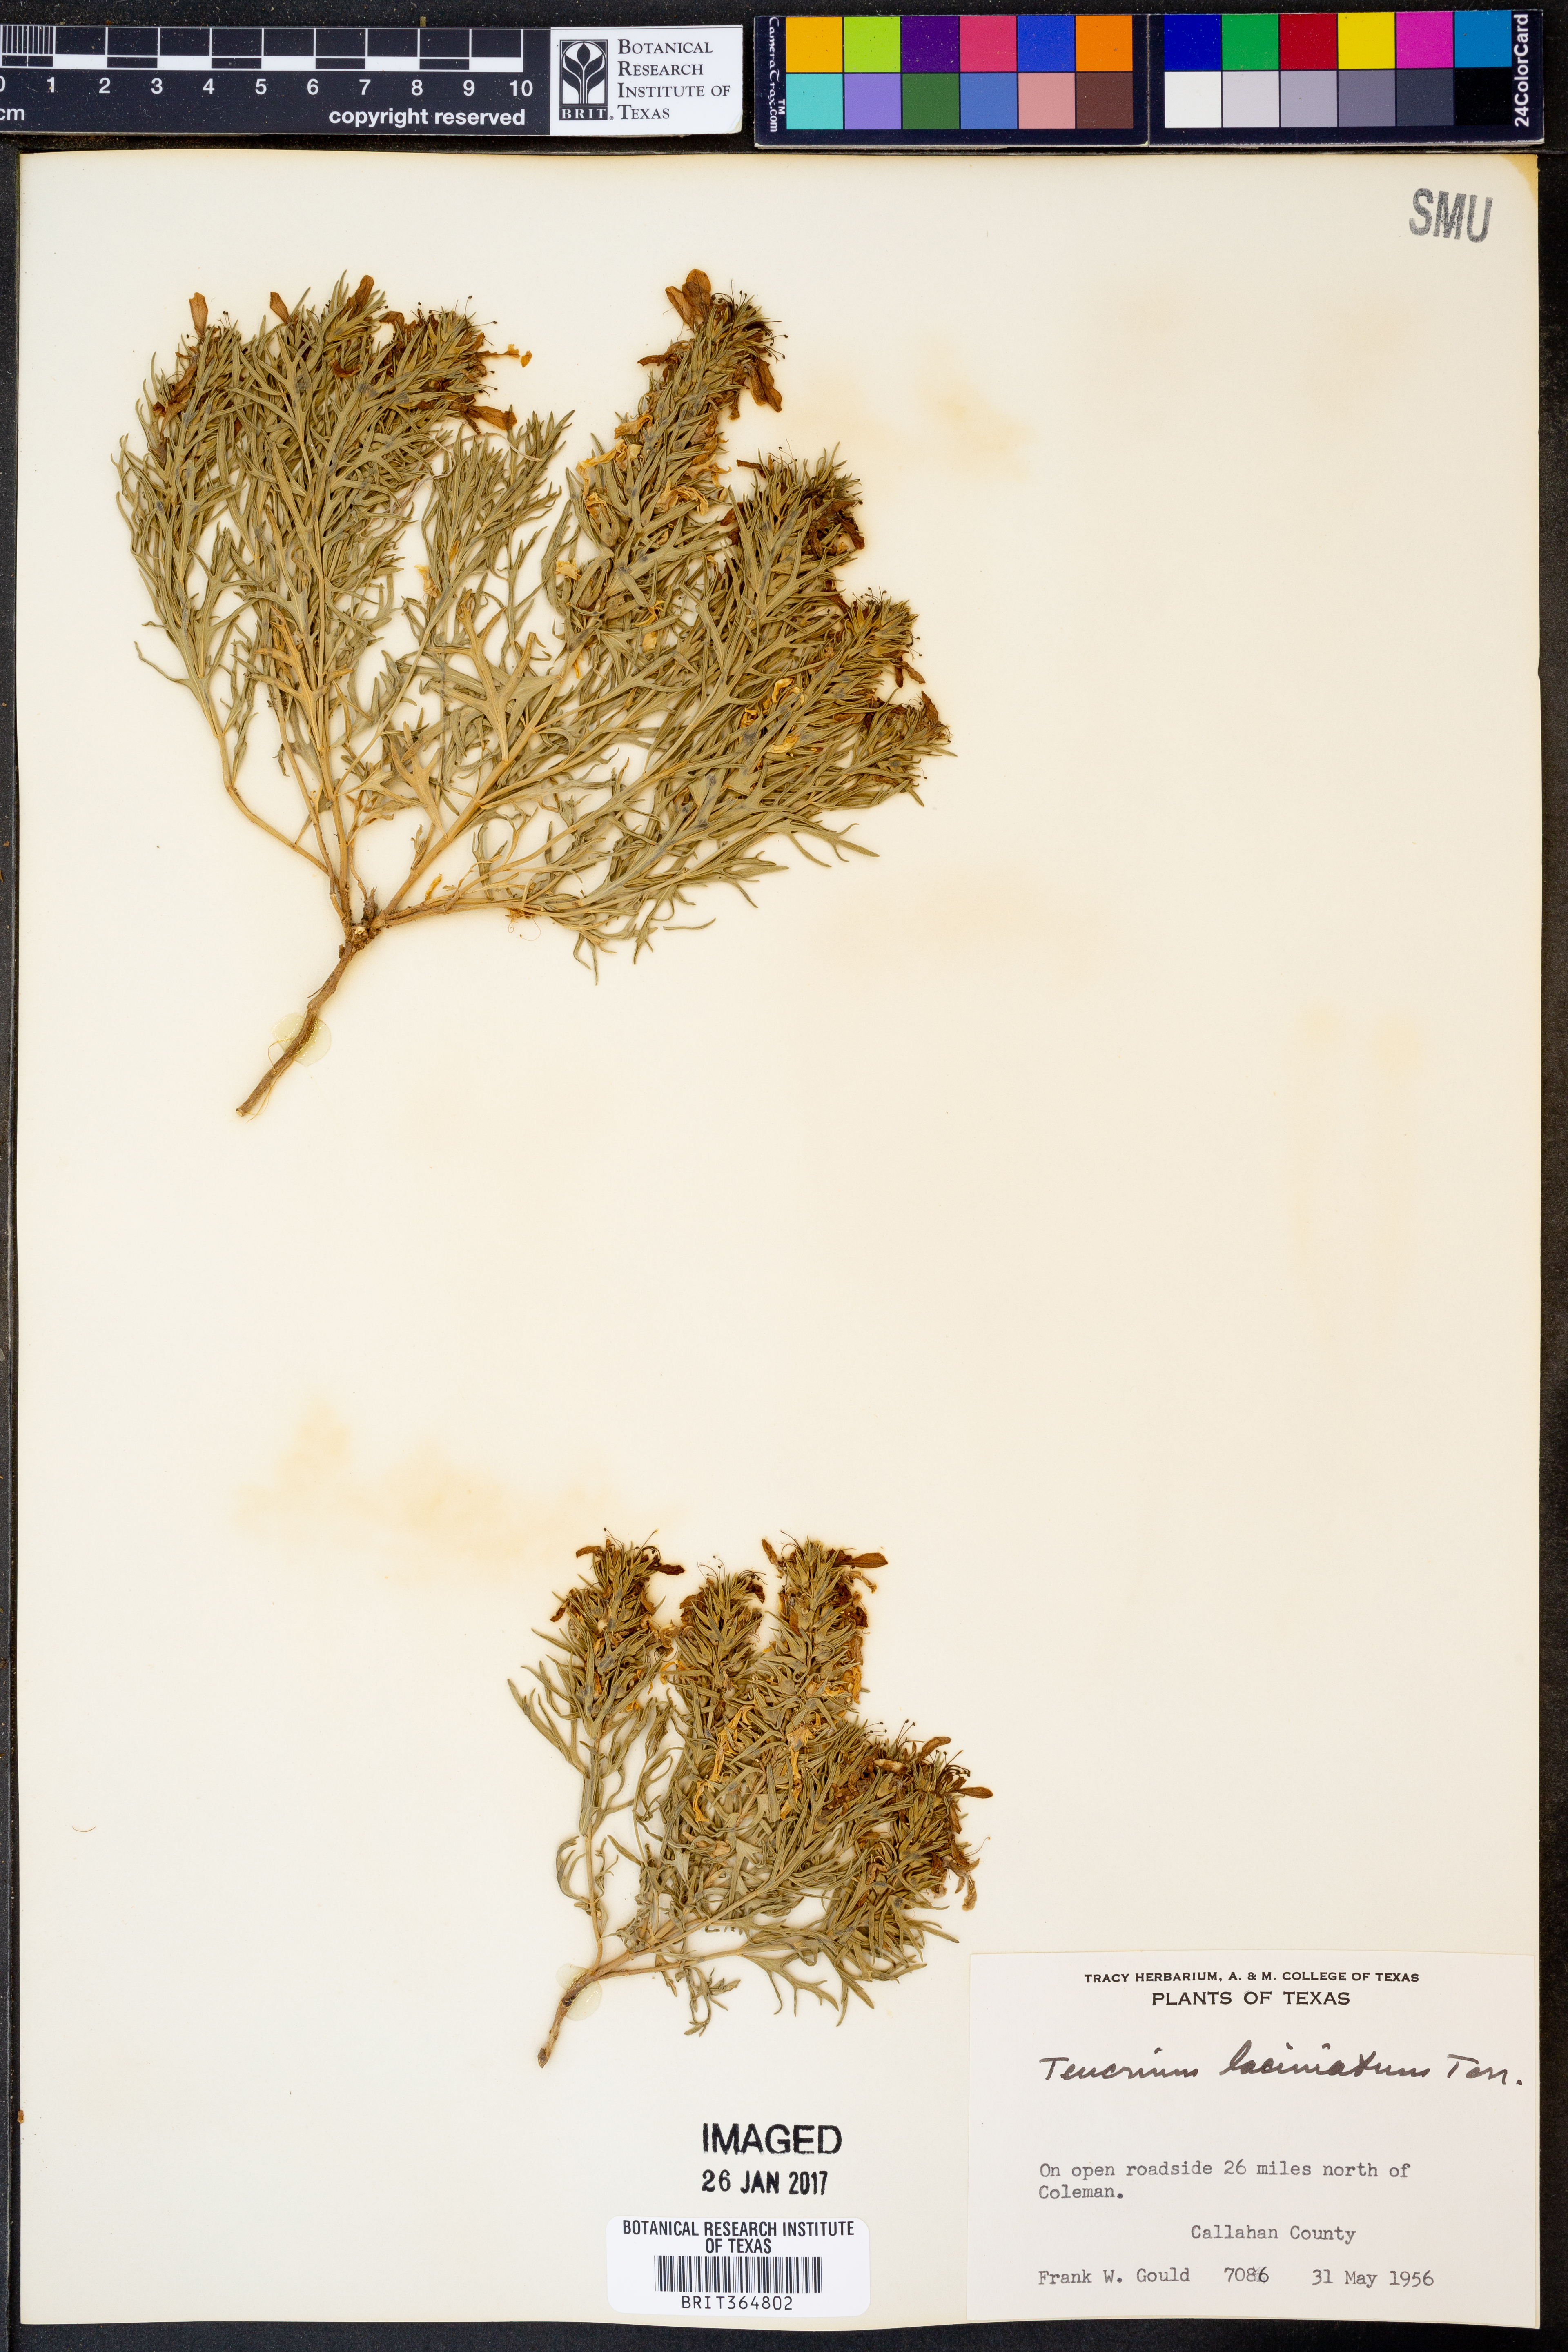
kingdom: Plantae
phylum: Tracheophyta
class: Magnoliopsida
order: Lamiales
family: Lamiaceae
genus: Teucrium
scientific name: Teucrium laciniatum
